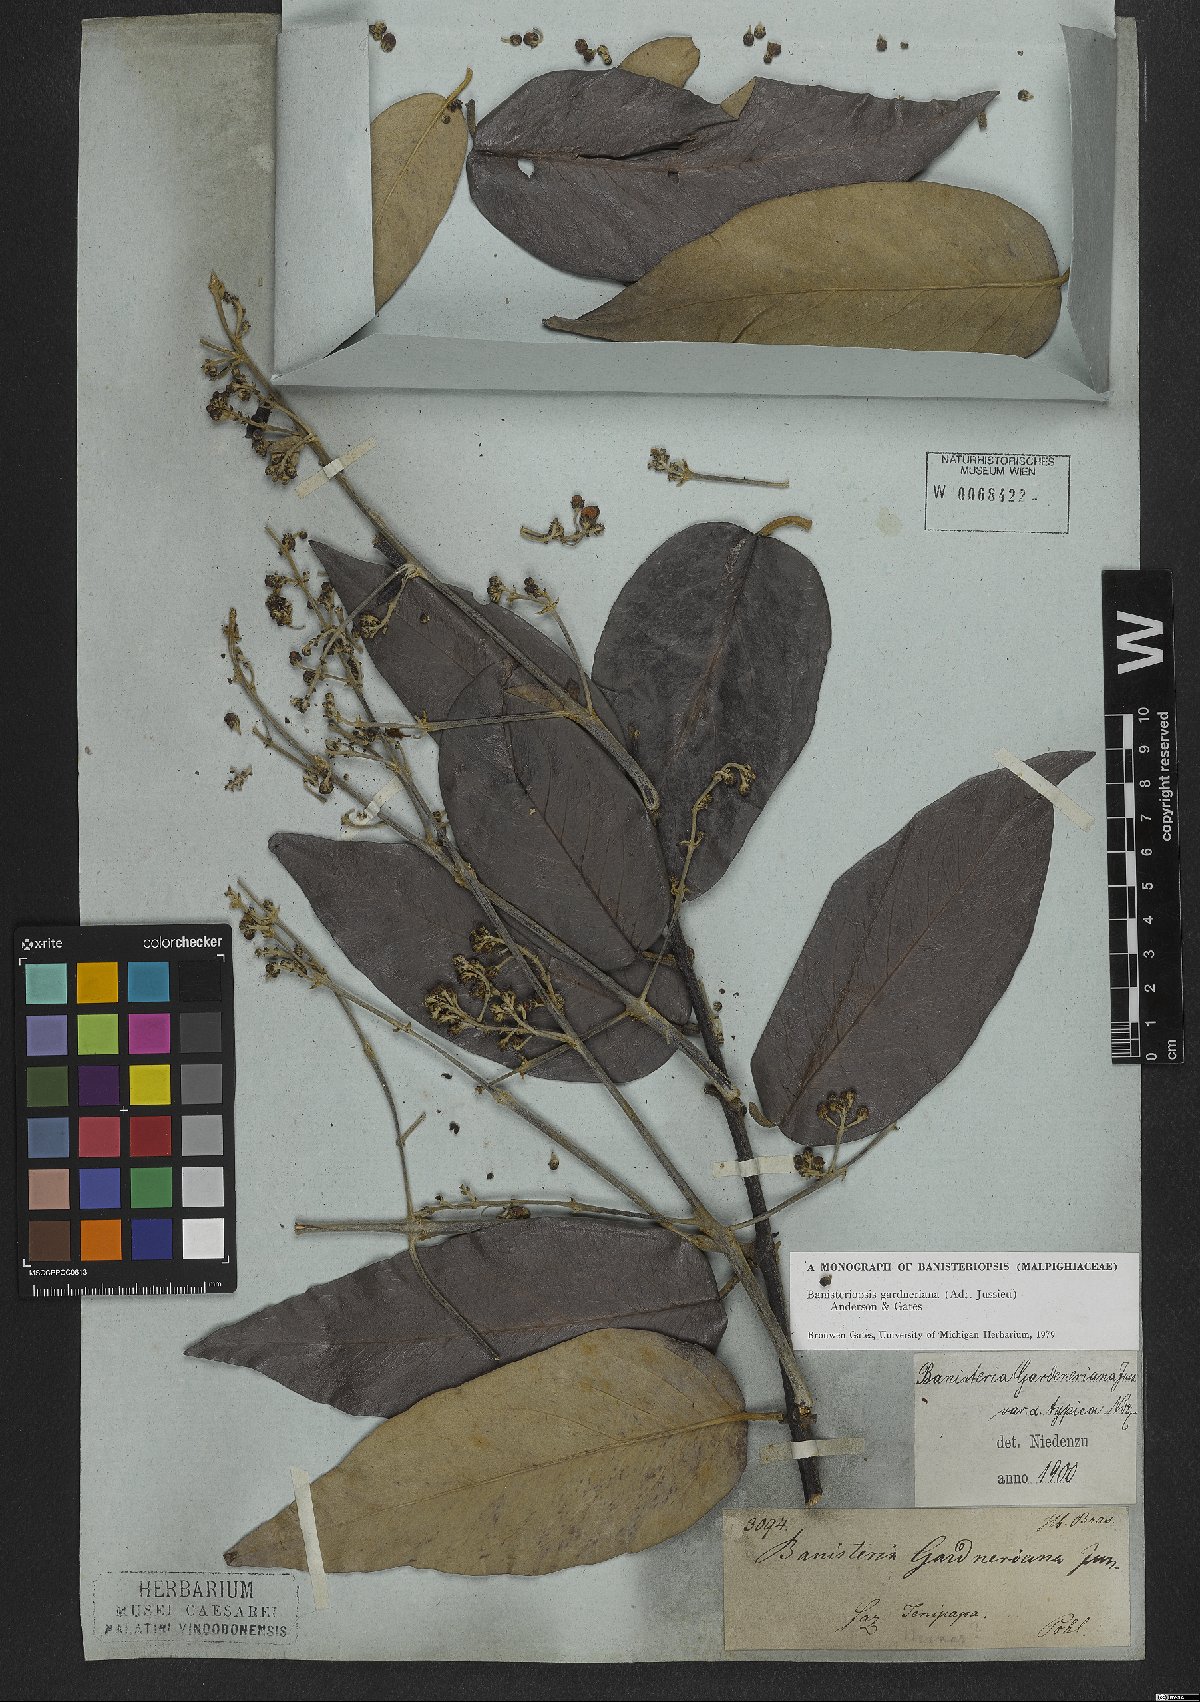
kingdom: Plantae
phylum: Tracheophyta
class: Magnoliopsida
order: Malpighiales
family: Malpighiaceae
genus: Banisteriopsis
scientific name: Banisteriopsis gardneriana
